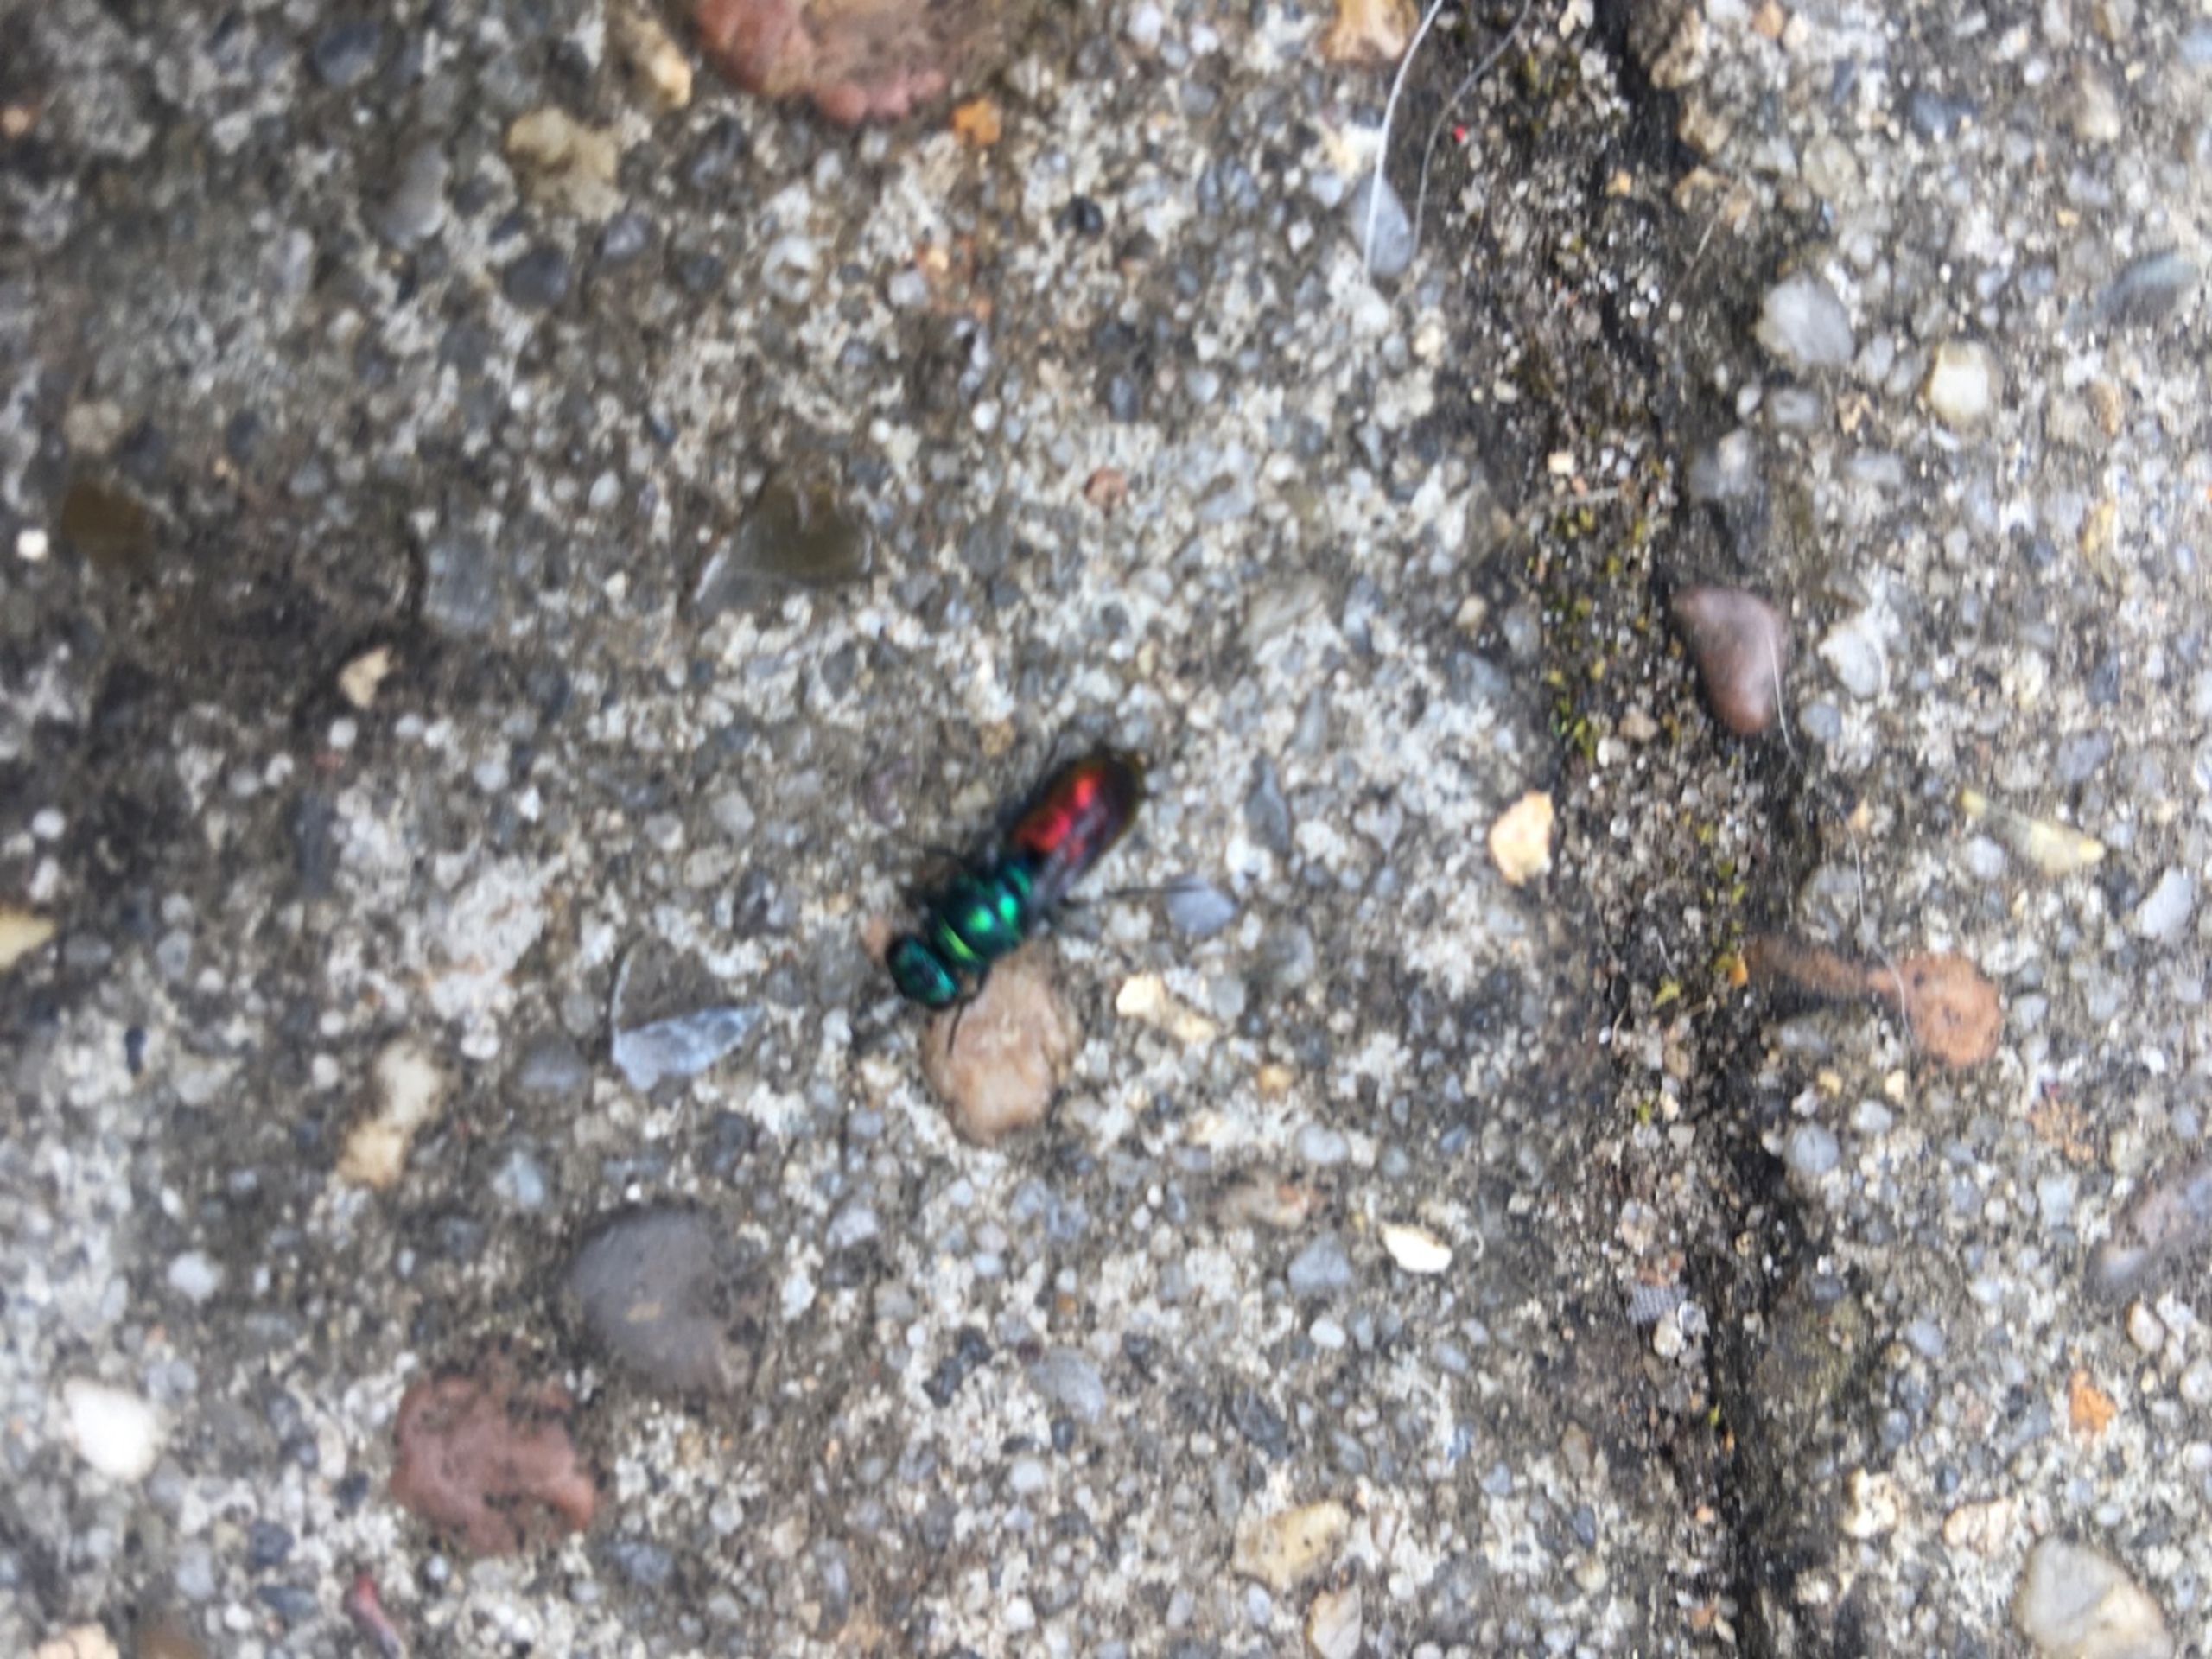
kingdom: Animalia
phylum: Arthropoda
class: Insecta
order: Hymenoptera
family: Chrysididae
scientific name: Chrysididae
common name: Guldhvepse
